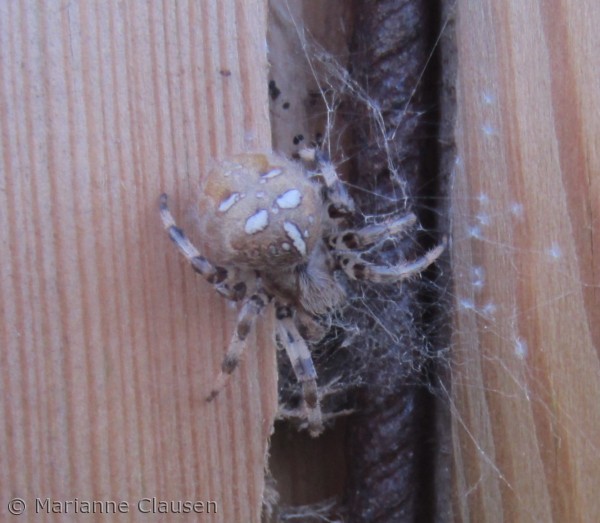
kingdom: Animalia
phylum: Arthropoda
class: Arachnida
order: Araneae
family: Araneidae
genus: Araneus
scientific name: Araneus quadratus
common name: Kvadratedderkop
